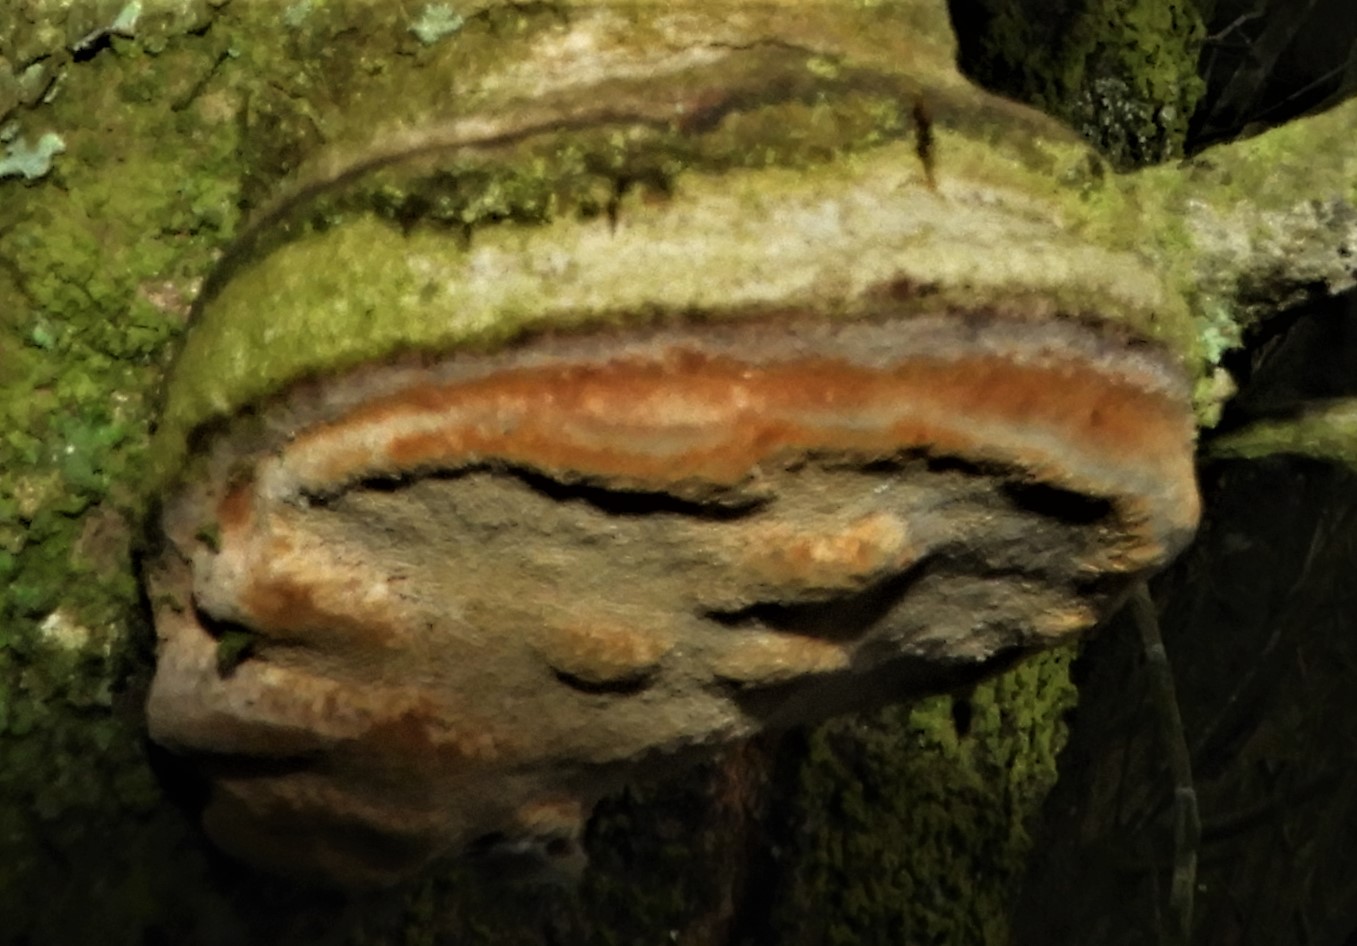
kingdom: Fungi
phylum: Basidiomycota
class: Agaricomycetes
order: Hymenochaetales
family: Hymenochaetaceae
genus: Phellinus
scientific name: Phellinus pomaceus
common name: blomme-ildporesvamp
